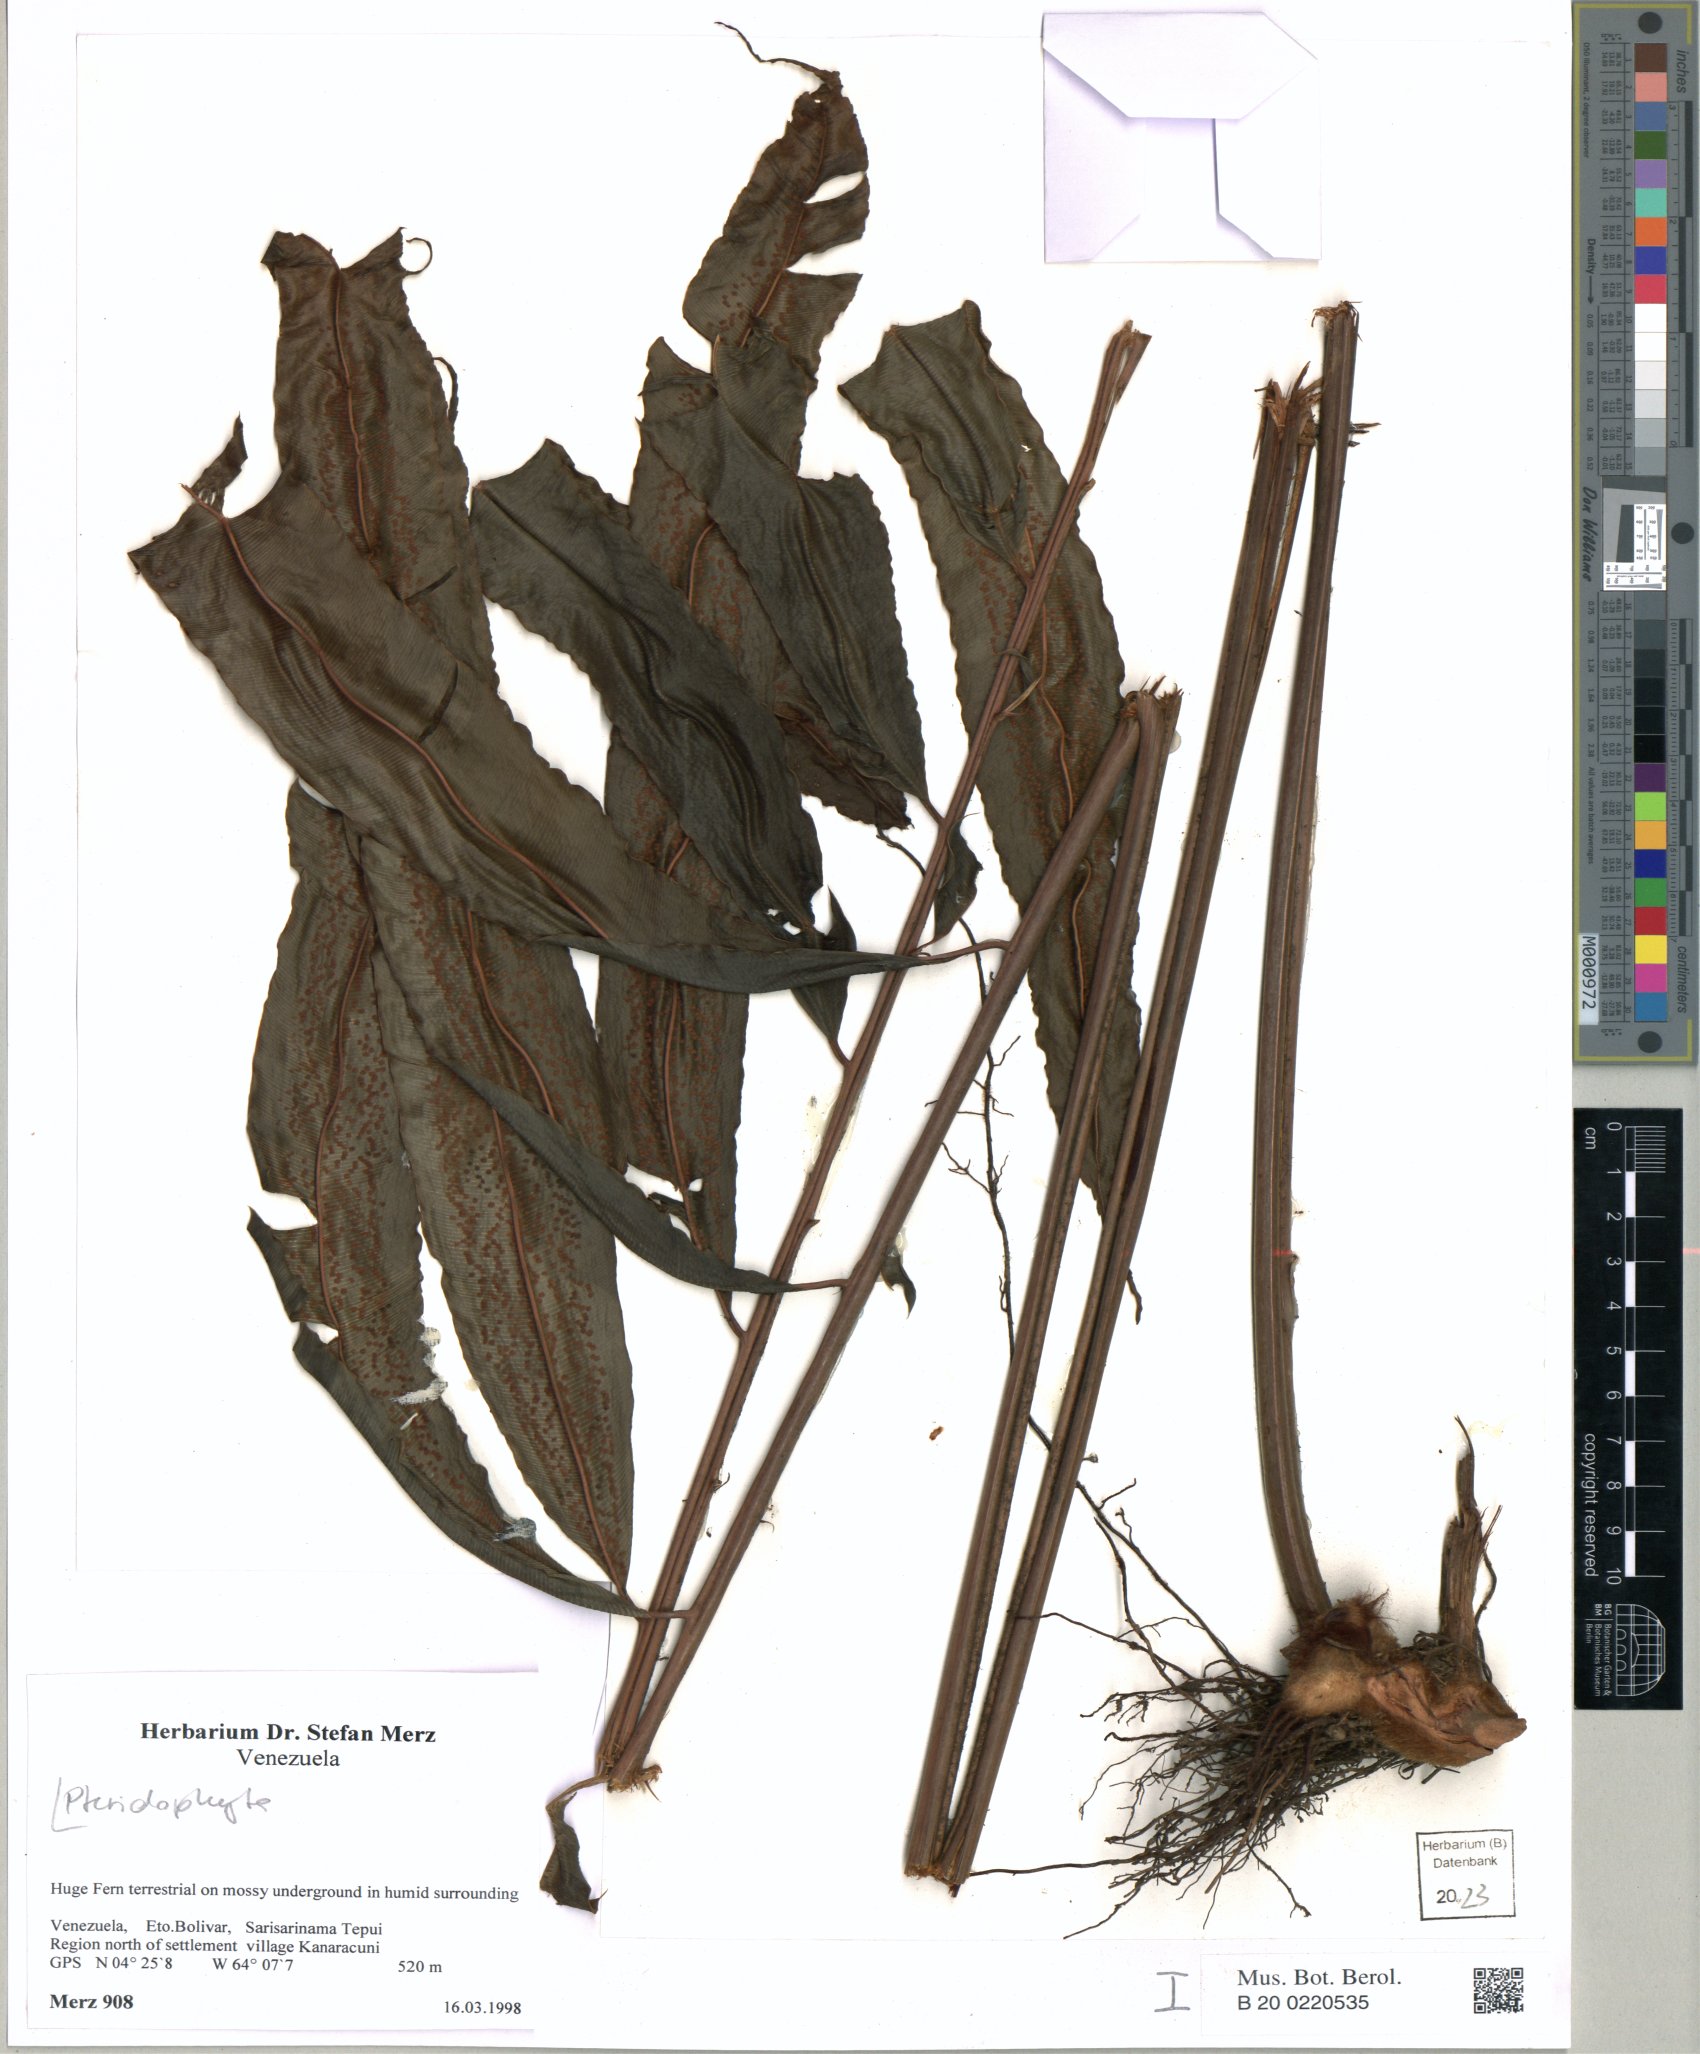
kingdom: Plantae
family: Pteridophyta
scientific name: Pteridophyta
